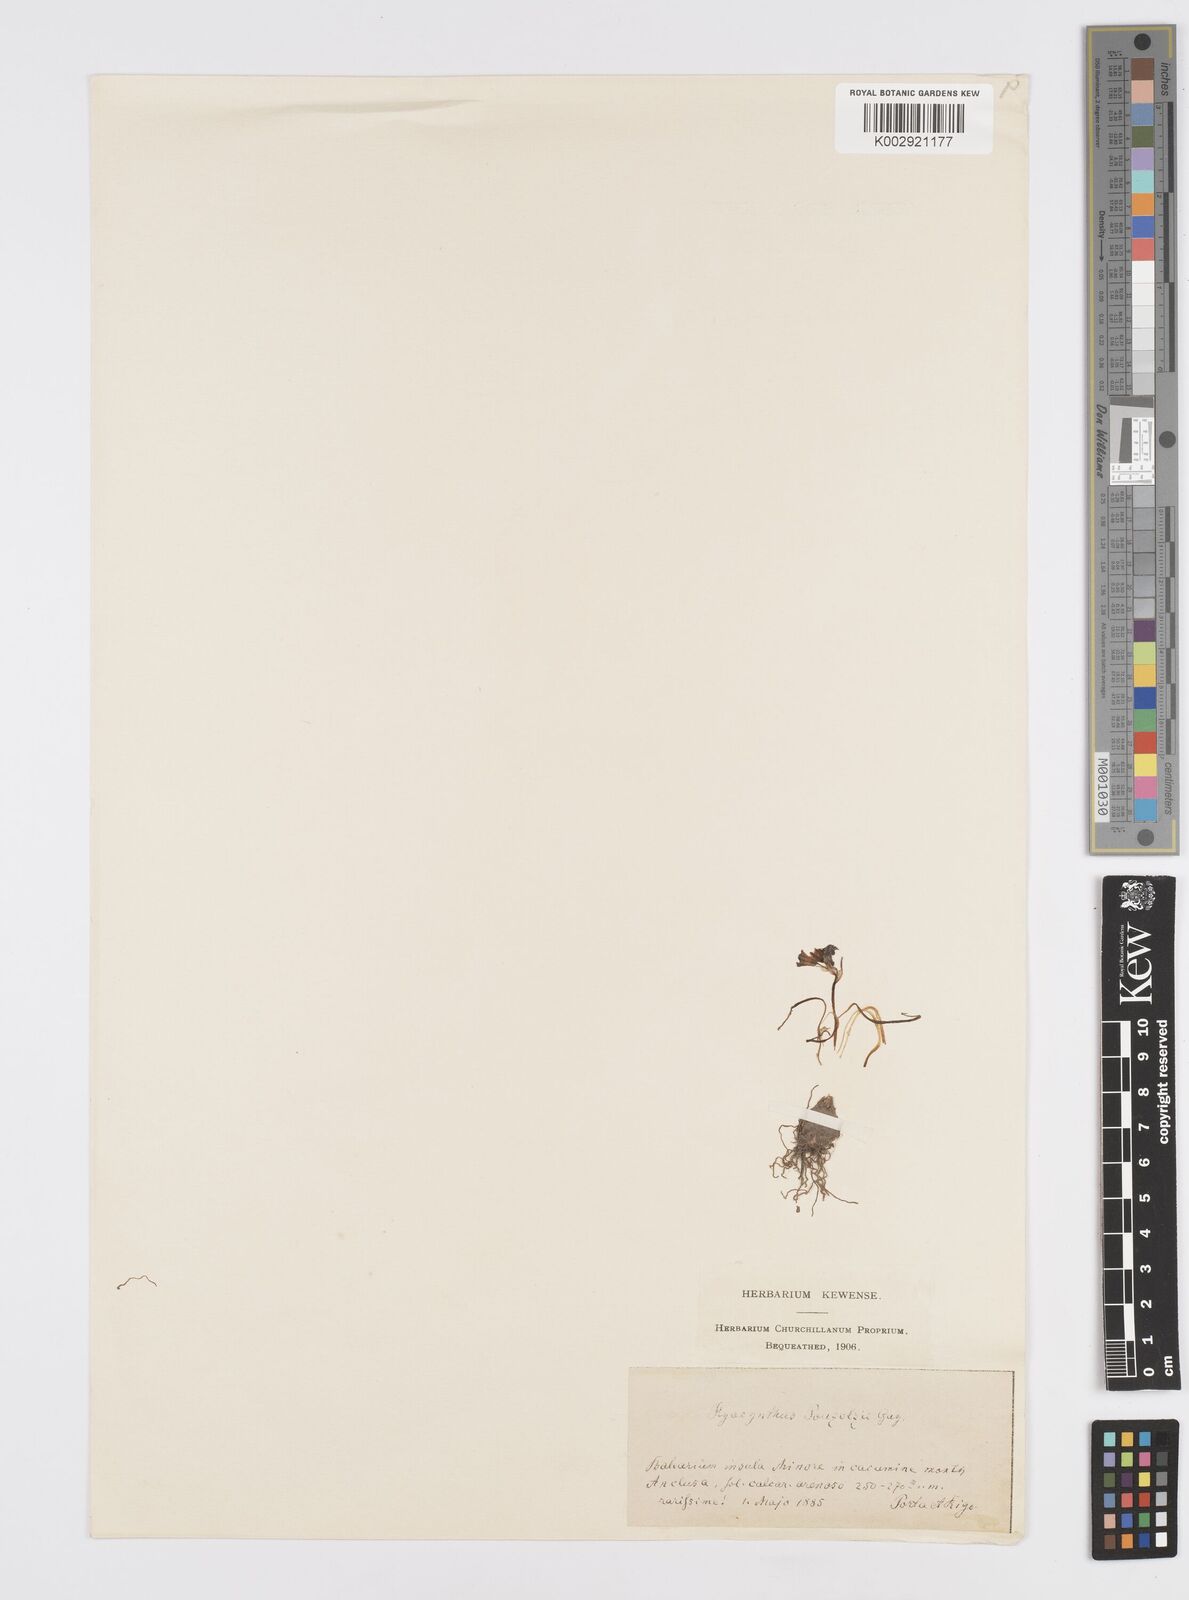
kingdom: Plantae
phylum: Tracheophyta
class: Liliopsida
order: Asparagales
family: Asparagaceae
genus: Brimeura
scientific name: Brimeura
